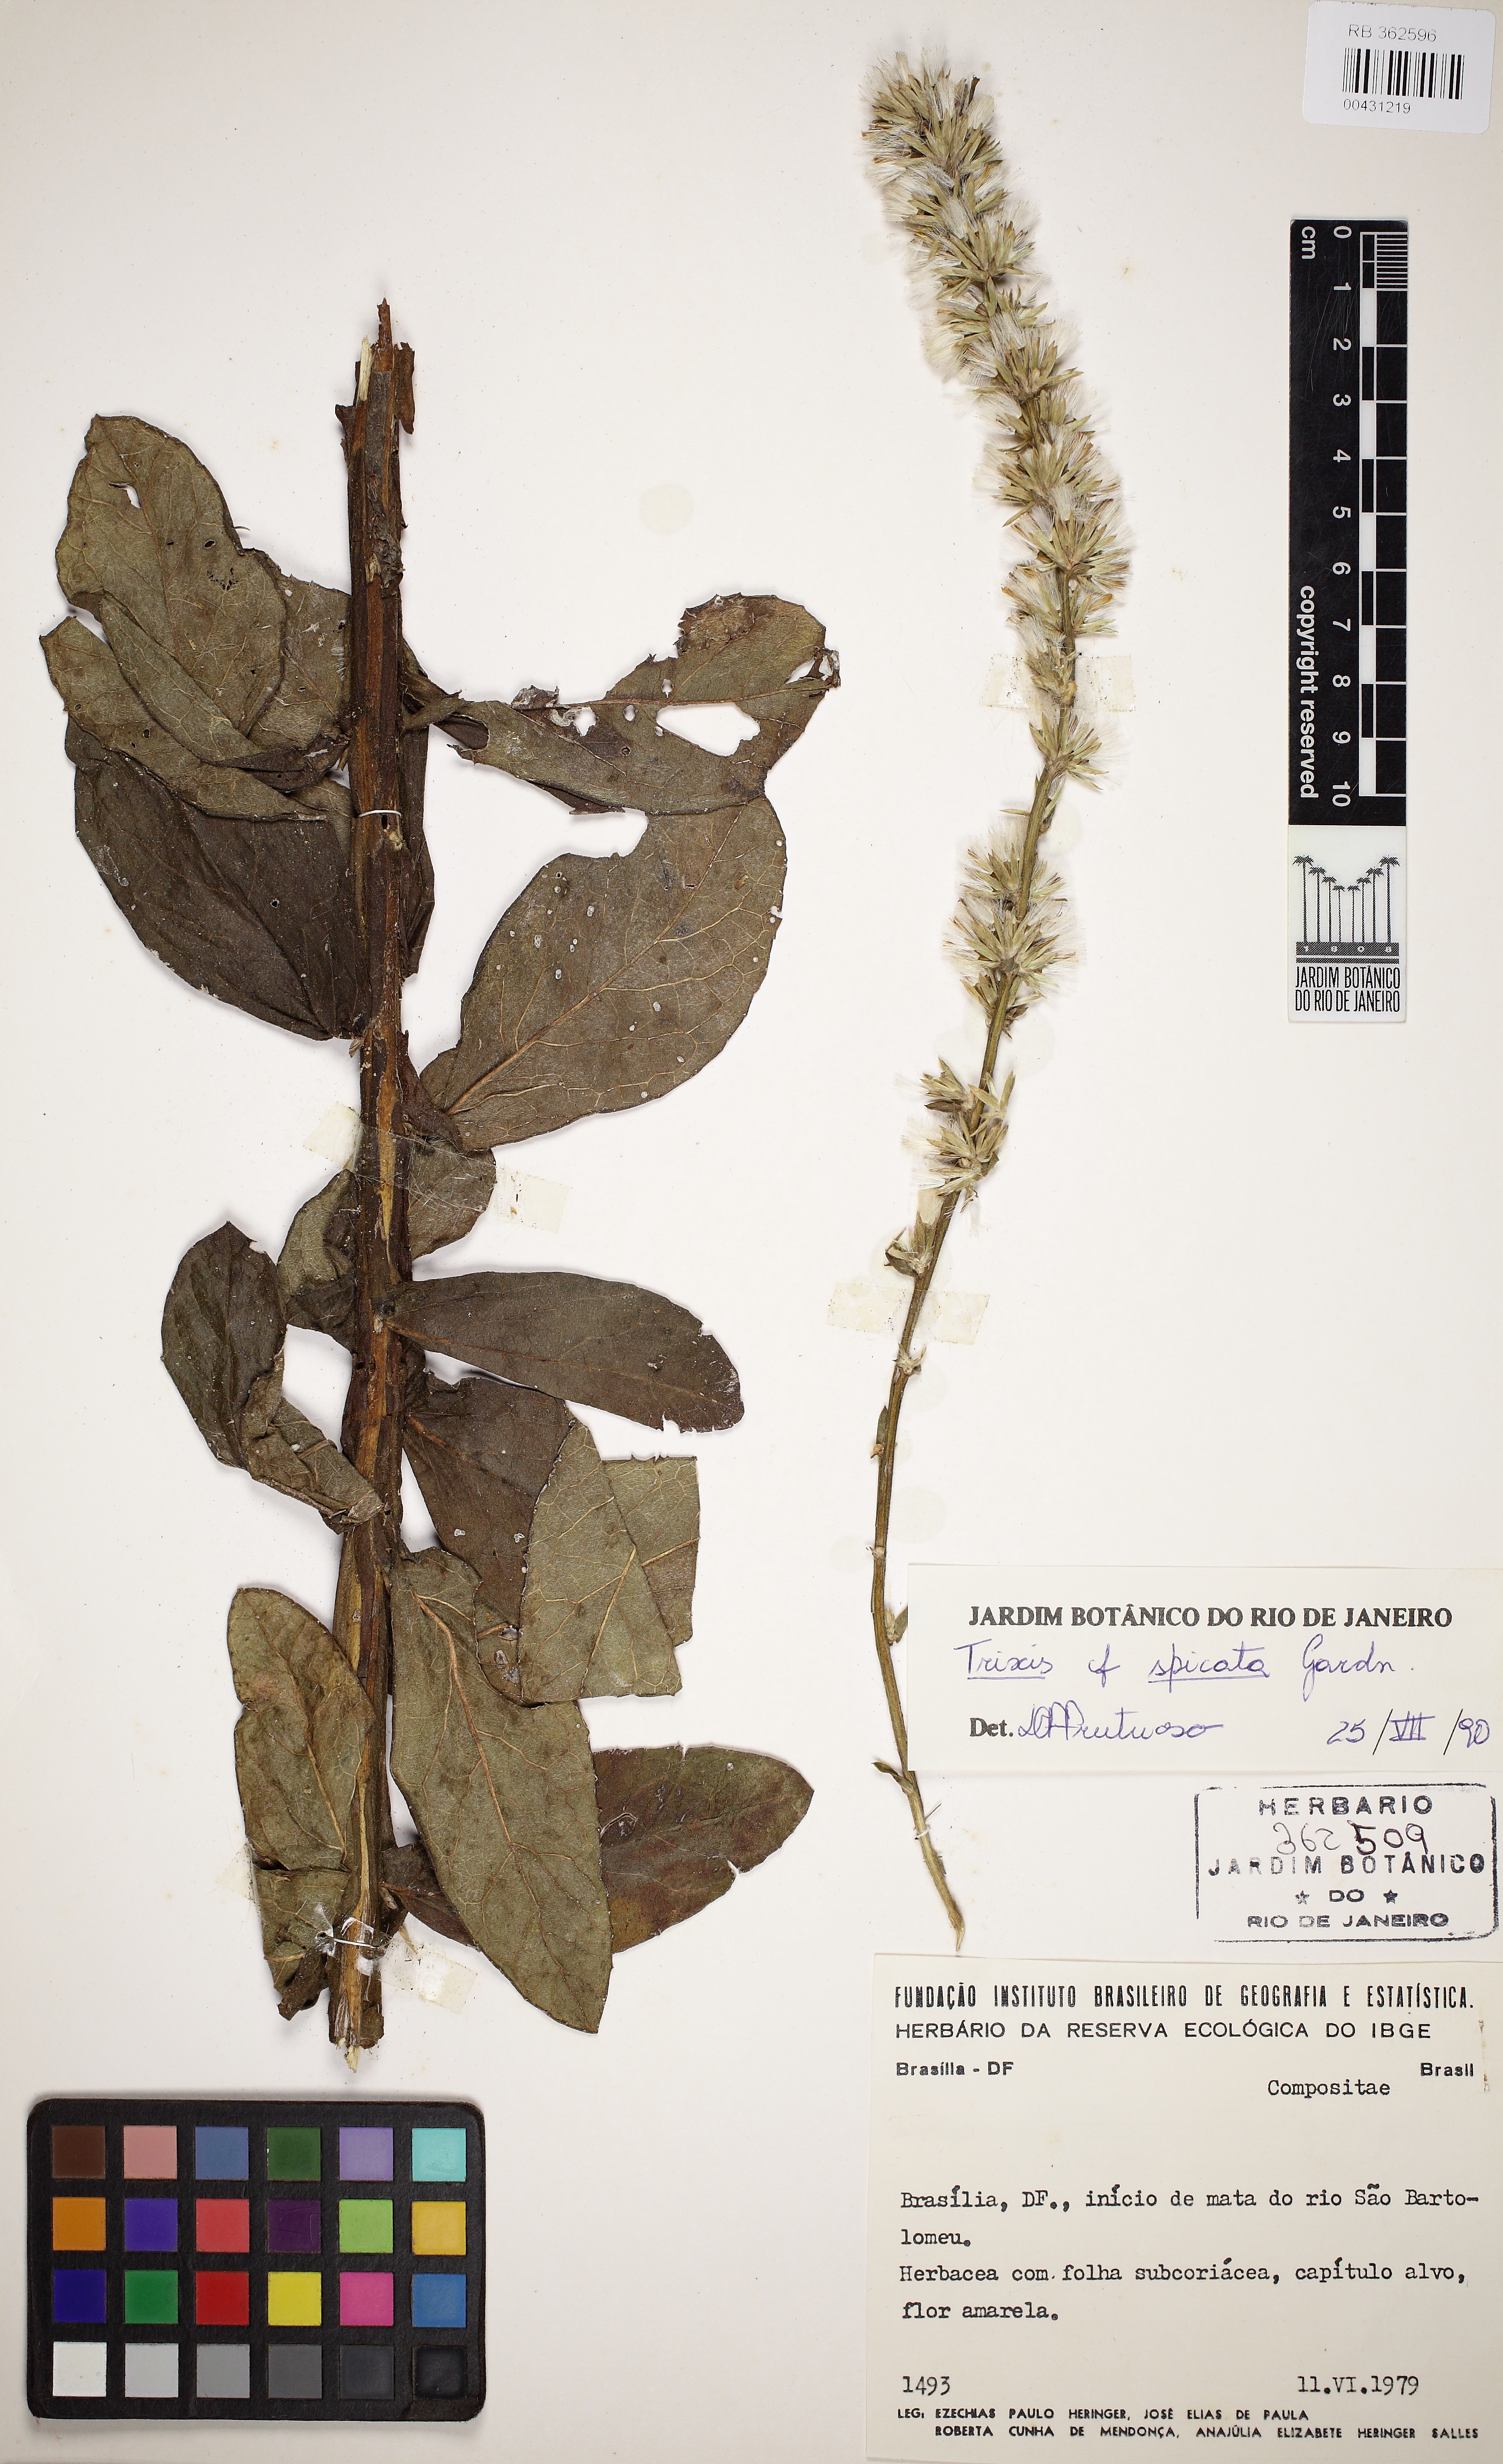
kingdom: Plantae
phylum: Tracheophyta
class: Magnoliopsida
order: Asterales
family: Asteraceae
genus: Trixis
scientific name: Trixis vauthieri
